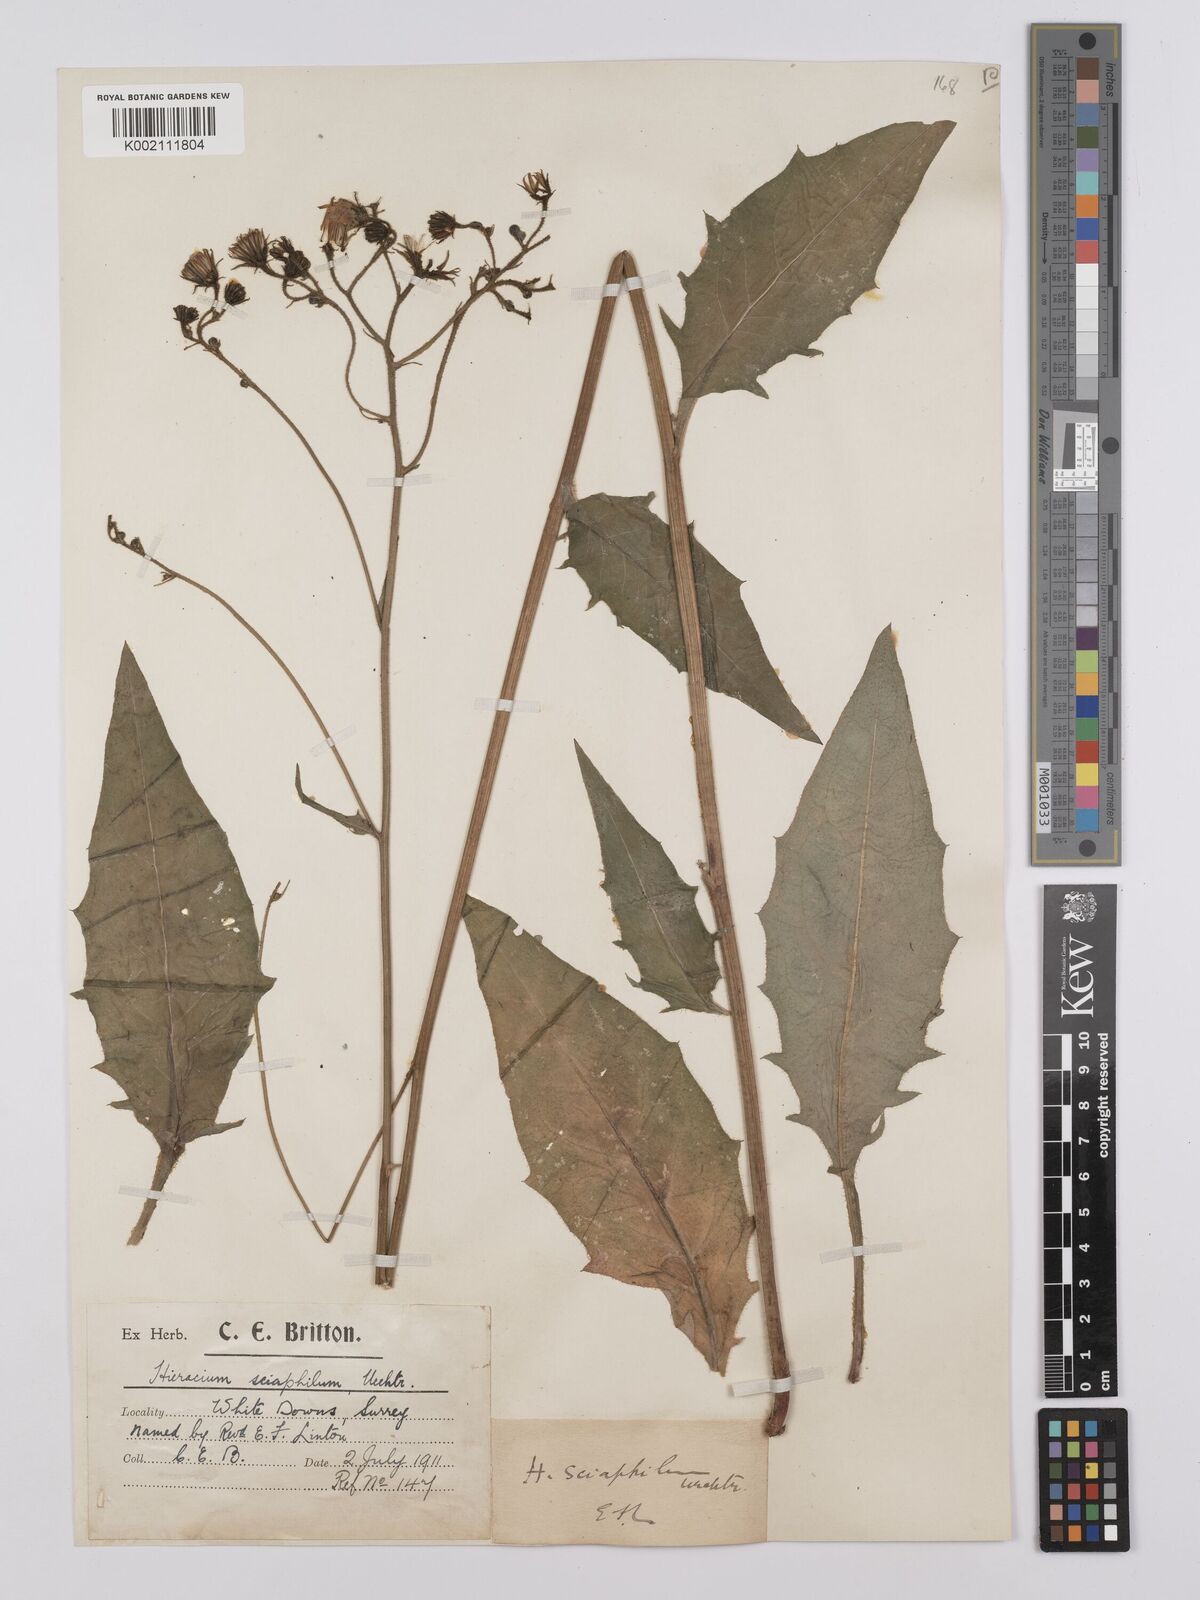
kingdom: Plantae
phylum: Tracheophyta
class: Magnoliopsida
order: Asterales
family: Asteraceae
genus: Hieracium
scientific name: Hieracium lachenalii
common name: Common hawkweed
